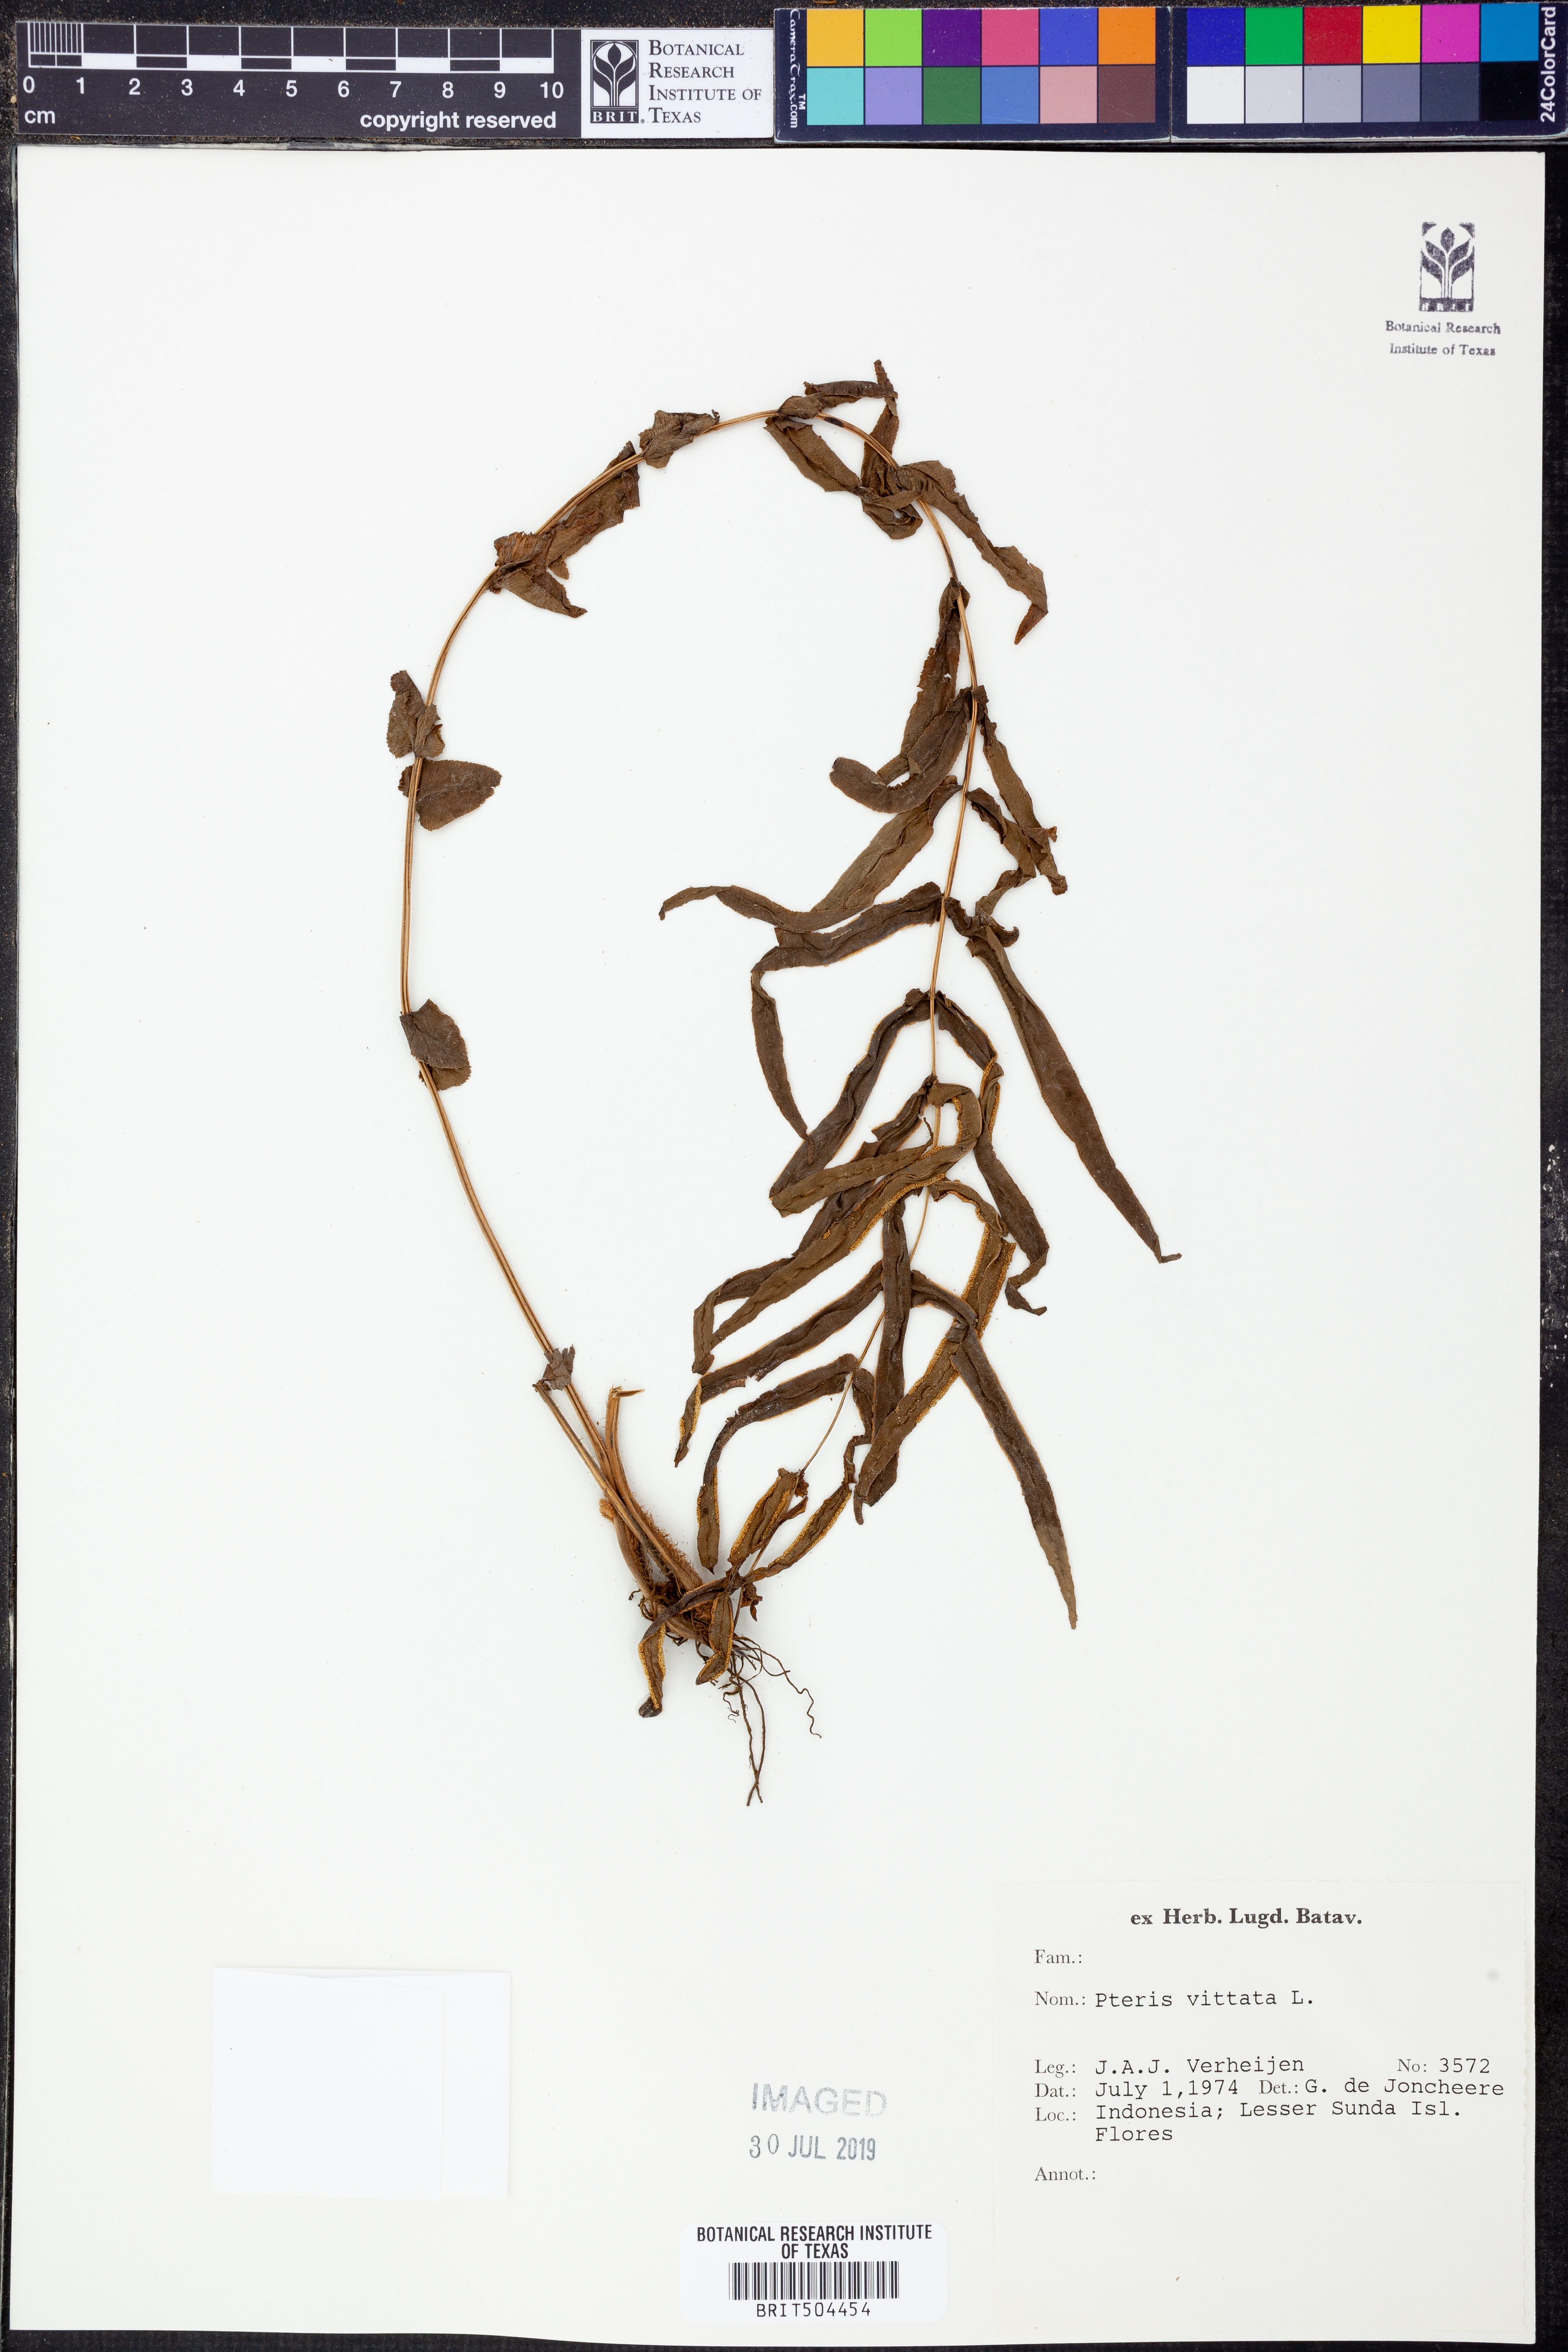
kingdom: Plantae
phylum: Tracheophyta
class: Polypodiopsida
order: Polypodiales
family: Pteridaceae
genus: Pteris
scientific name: Pteris vittata
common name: Ladder brake
